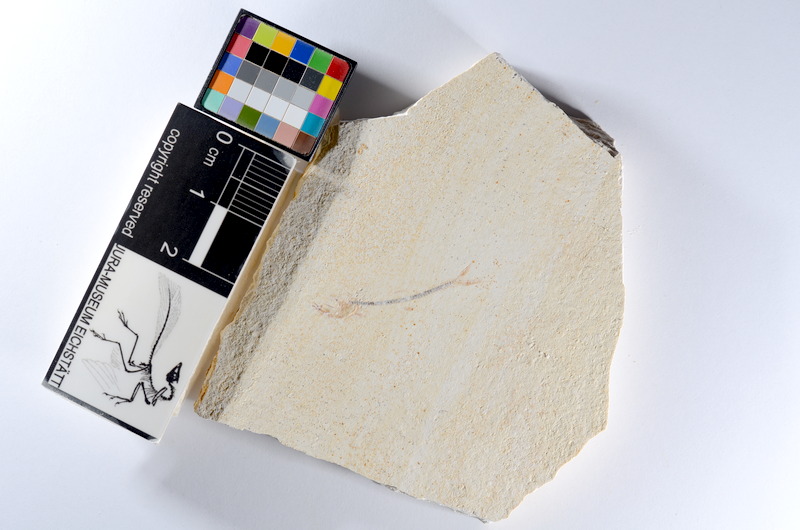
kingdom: Animalia
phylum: Chordata
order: Salmoniformes
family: Orthogonikleithridae
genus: Orthogonikleithrus
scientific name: Orthogonikleithrus hoelli
